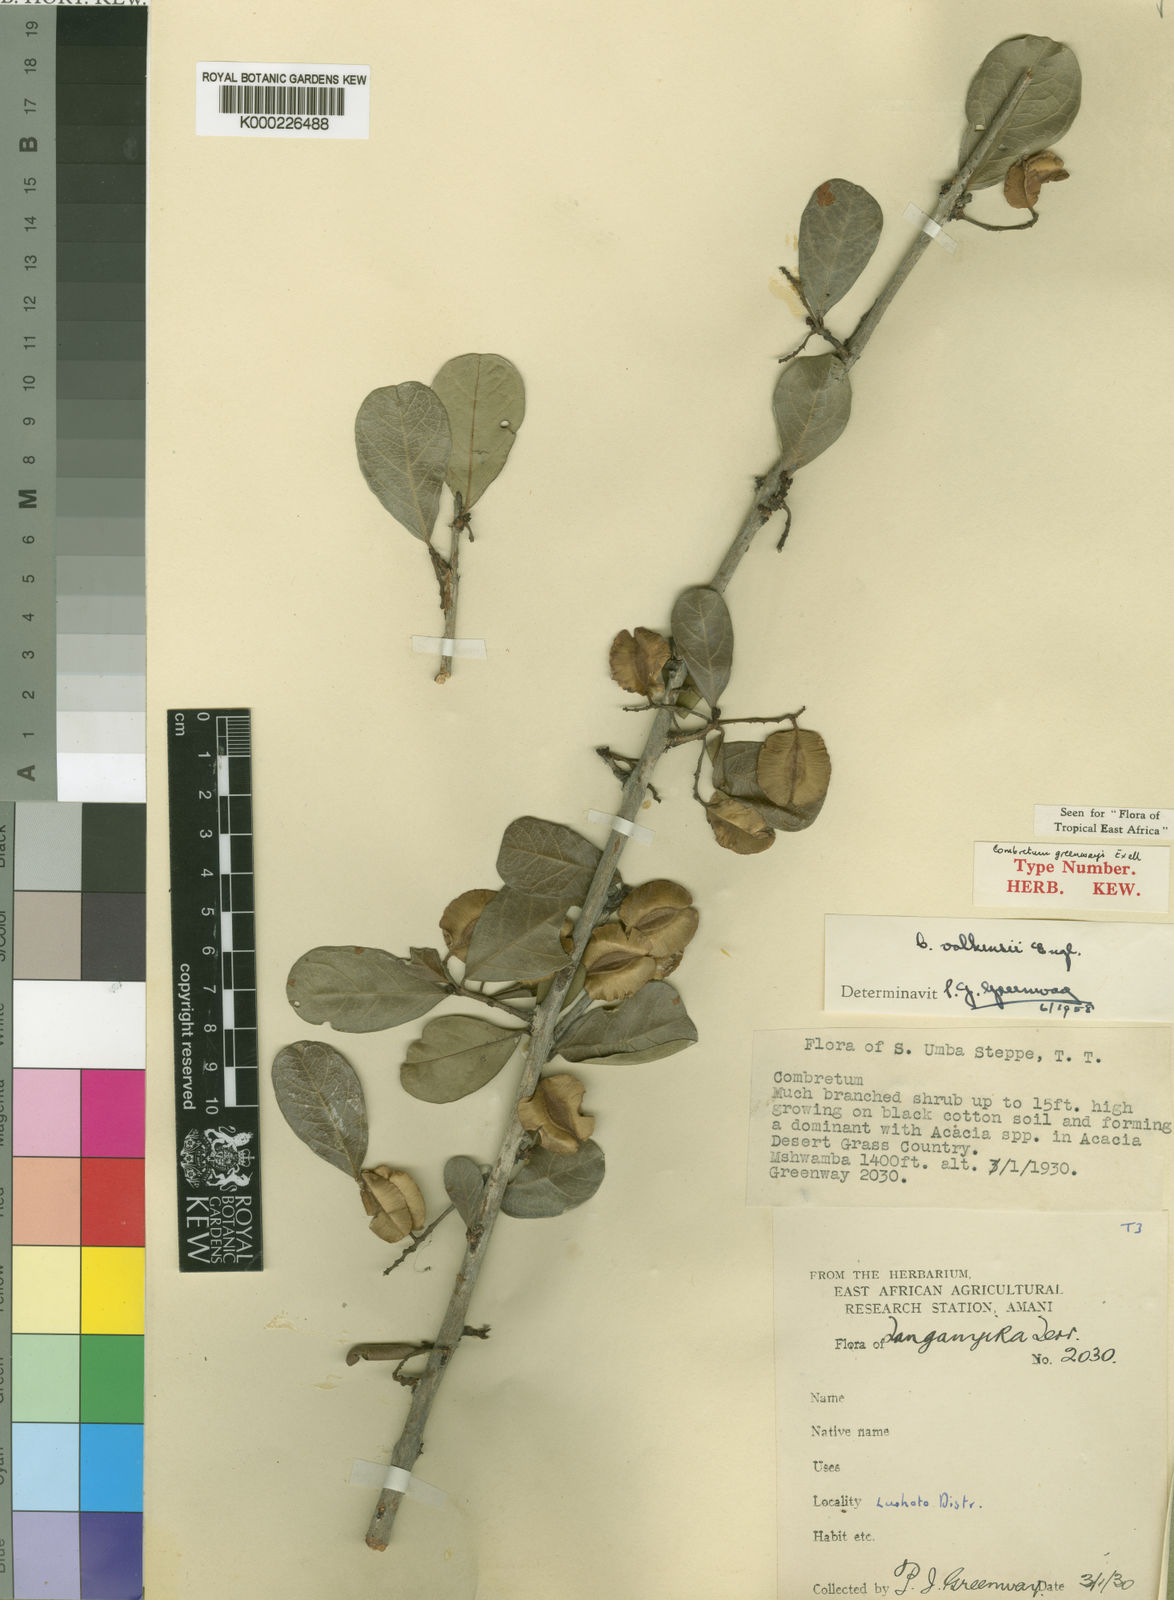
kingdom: Plantae
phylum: Tracheophyta
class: Magnoliopsida
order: Myrtales
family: Combretaceae
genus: Combretum
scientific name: Combretum hereroense
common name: Russet bushwillow
